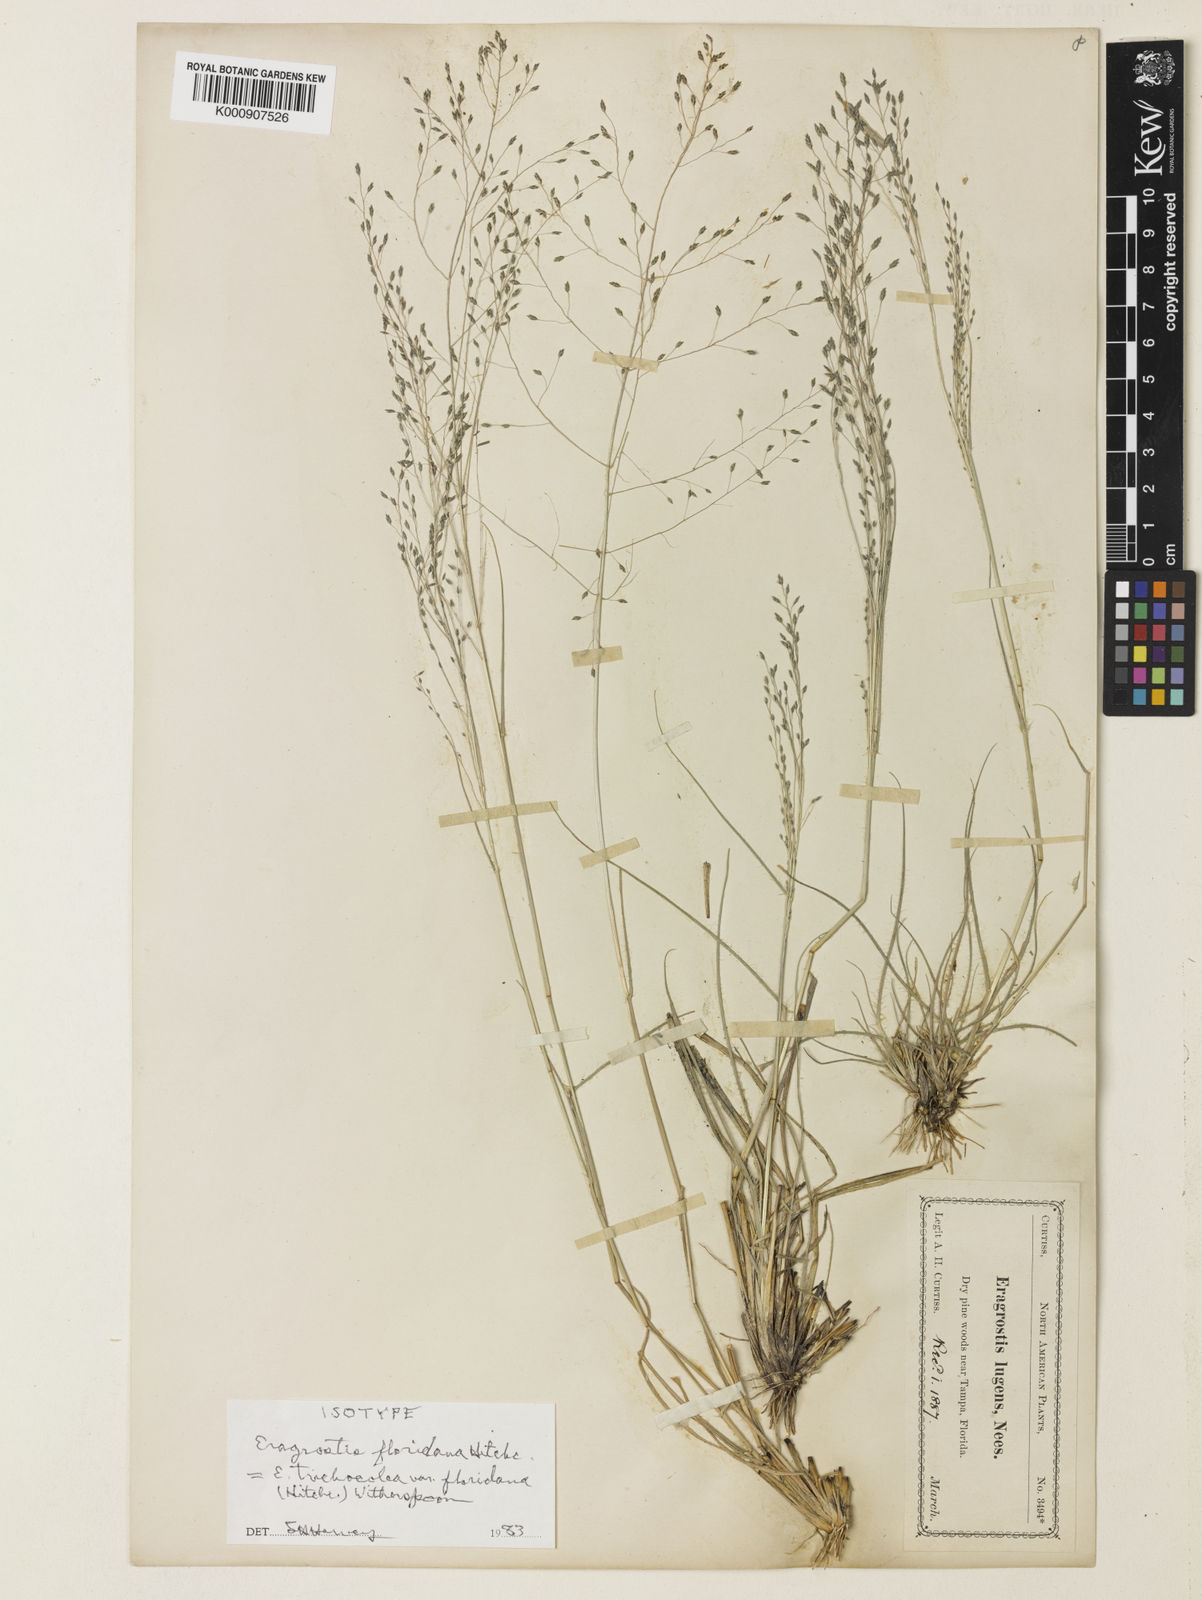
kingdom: Plantae
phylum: Tracheophyta
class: Liliopsida
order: Poales
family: Poaceae
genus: Eragrostis
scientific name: Eragrostis trichocolea
